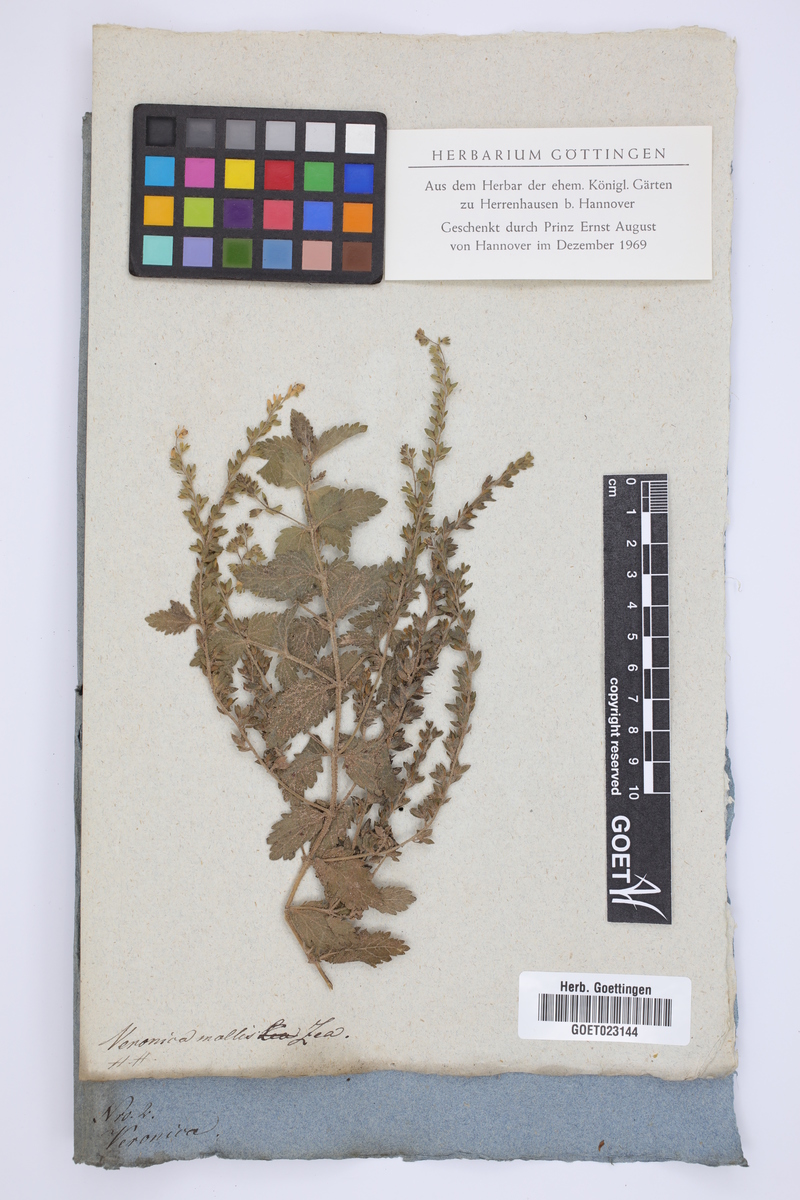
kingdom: Plantae
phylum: Tracheophyta
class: Magnoliopsida
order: Lamiales
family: Plantaginaceae
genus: Veronica
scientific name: Veronica chamaedrys
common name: Germander speedwell
